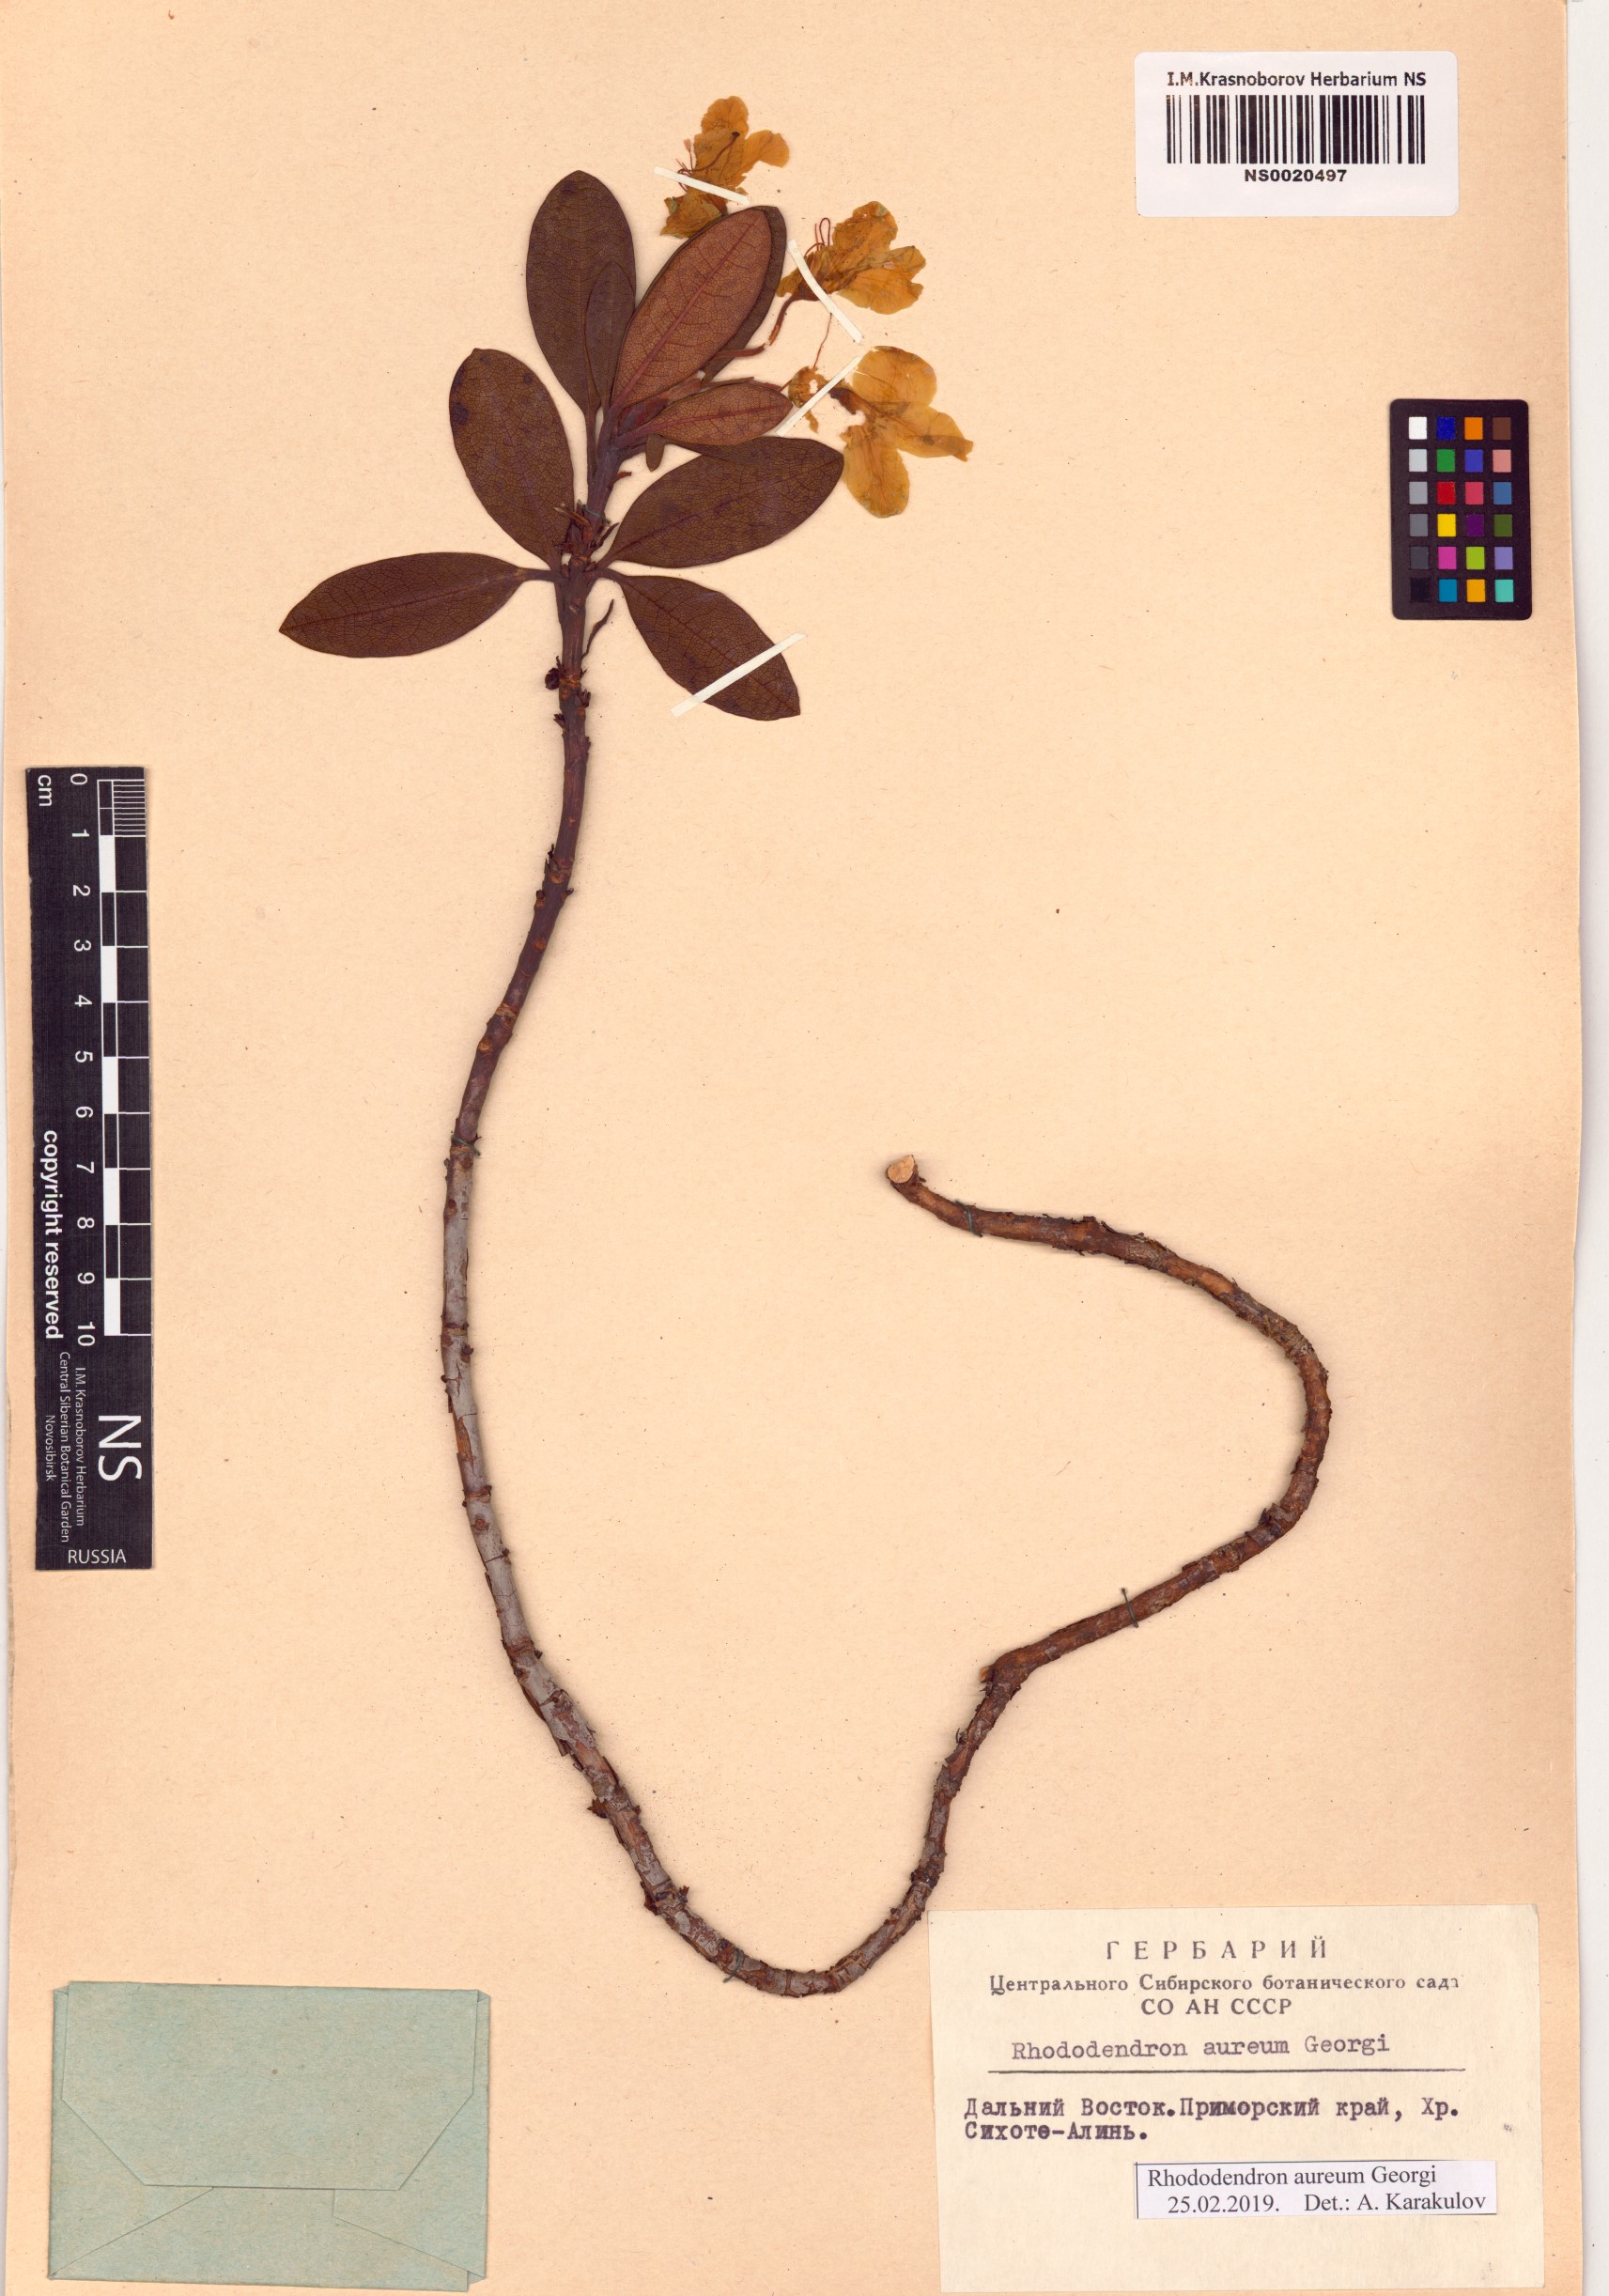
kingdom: Plantae
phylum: Tracheophyta
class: Magnoliopsida
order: Ericales
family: Ericaceae
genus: Rhododendron
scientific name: Rhododendron aureum
